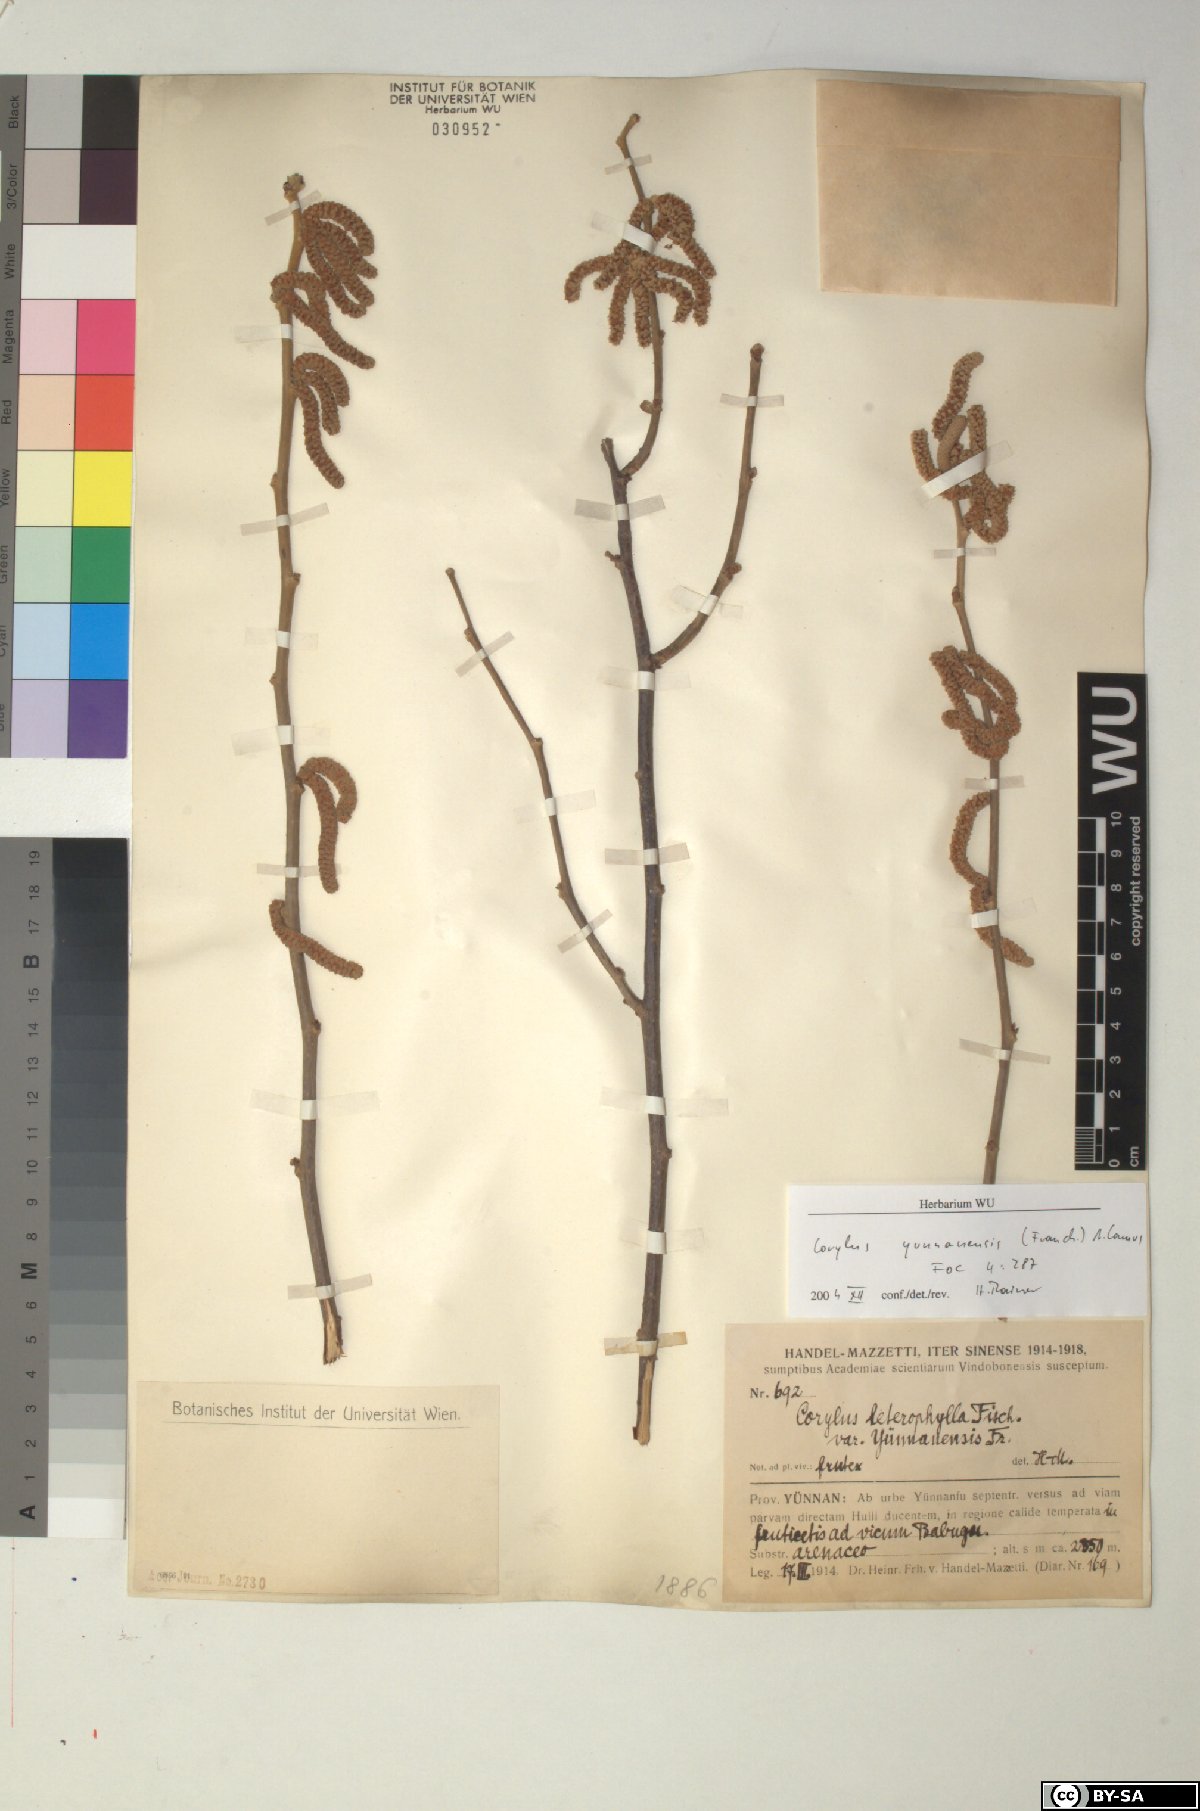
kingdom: Plantae
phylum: Tracheophyta
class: Magnoliopsida
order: Fagales
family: Betulaceae
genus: Corylus
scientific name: Corylus yunnanensis
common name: Yunnan hazel
